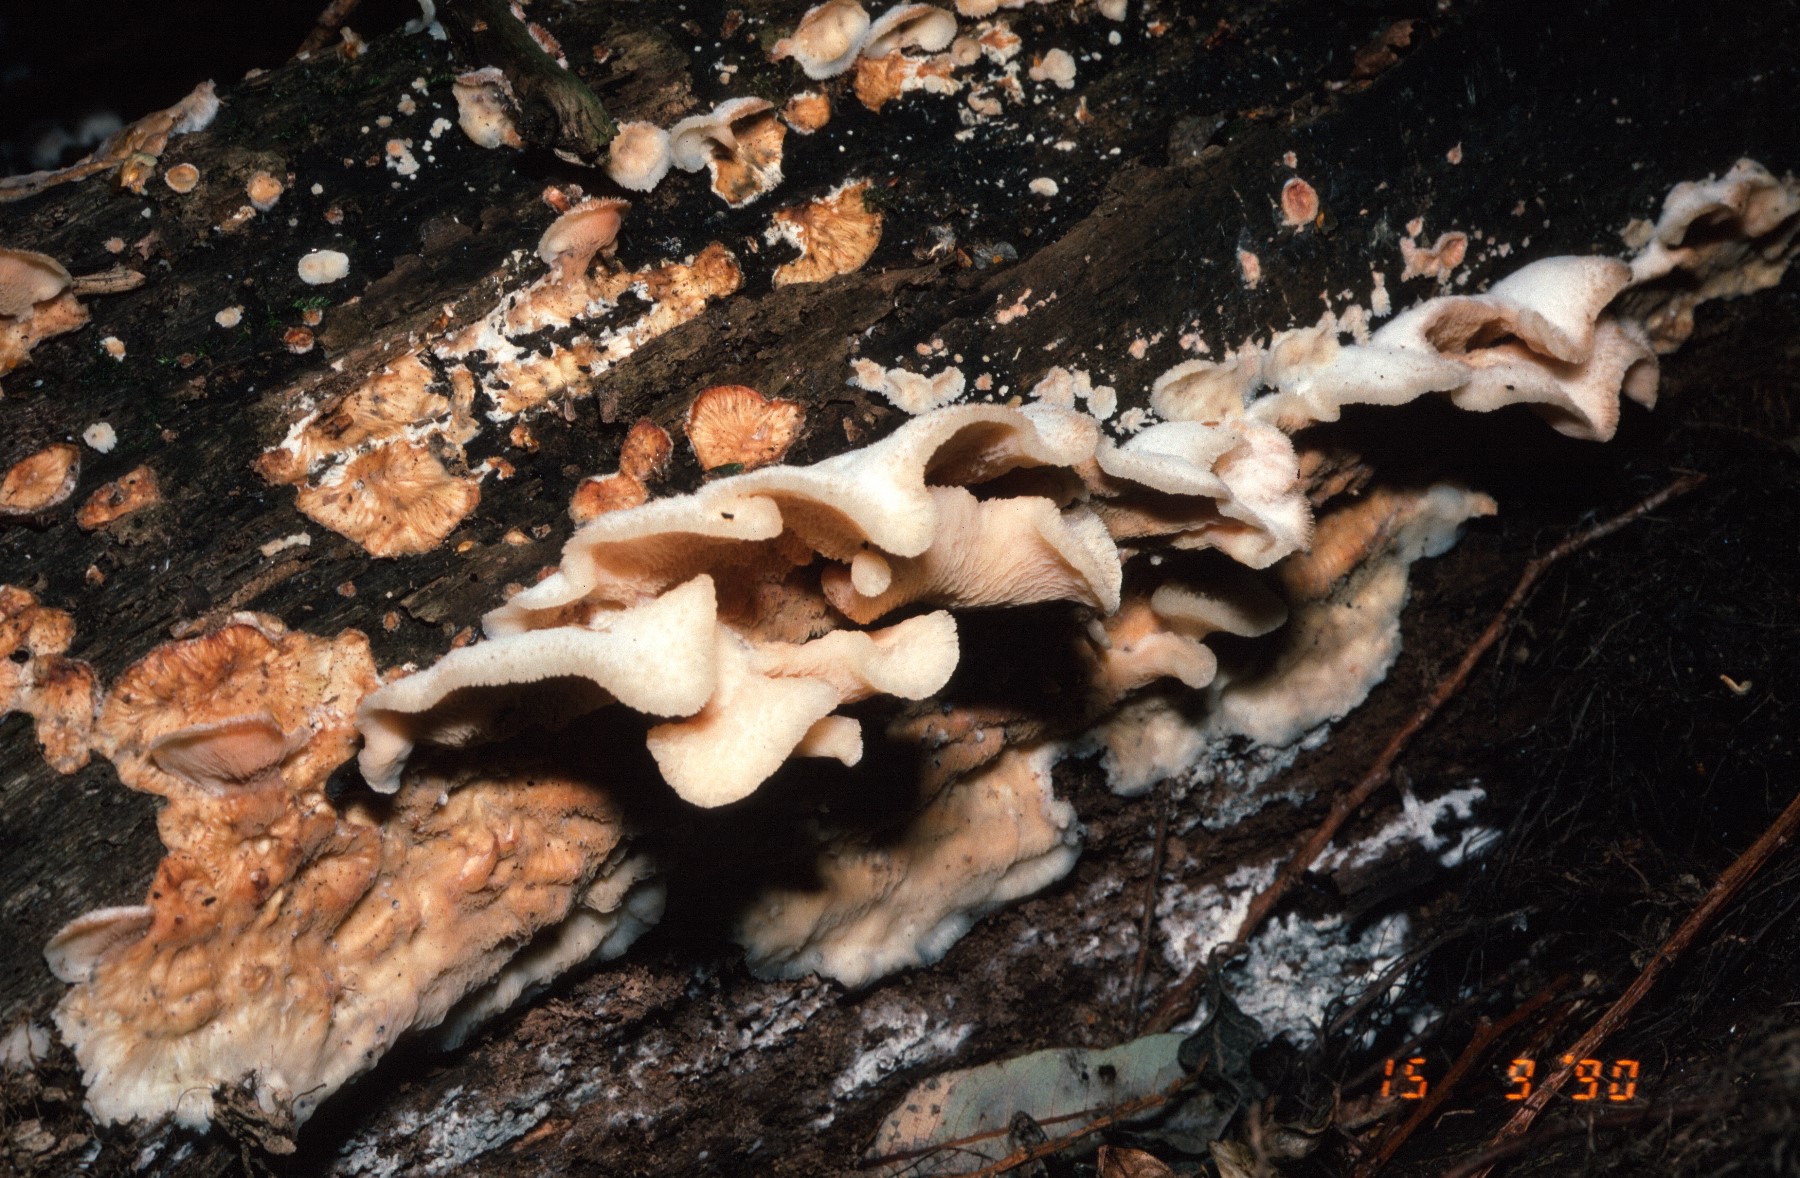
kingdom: Fungi
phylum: Basidiomycota
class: Agaricomycetes
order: Polyporales
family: Meruliaceae
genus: Phlebia
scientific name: Phlebia tremellosa
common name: bævrende åresvamp
